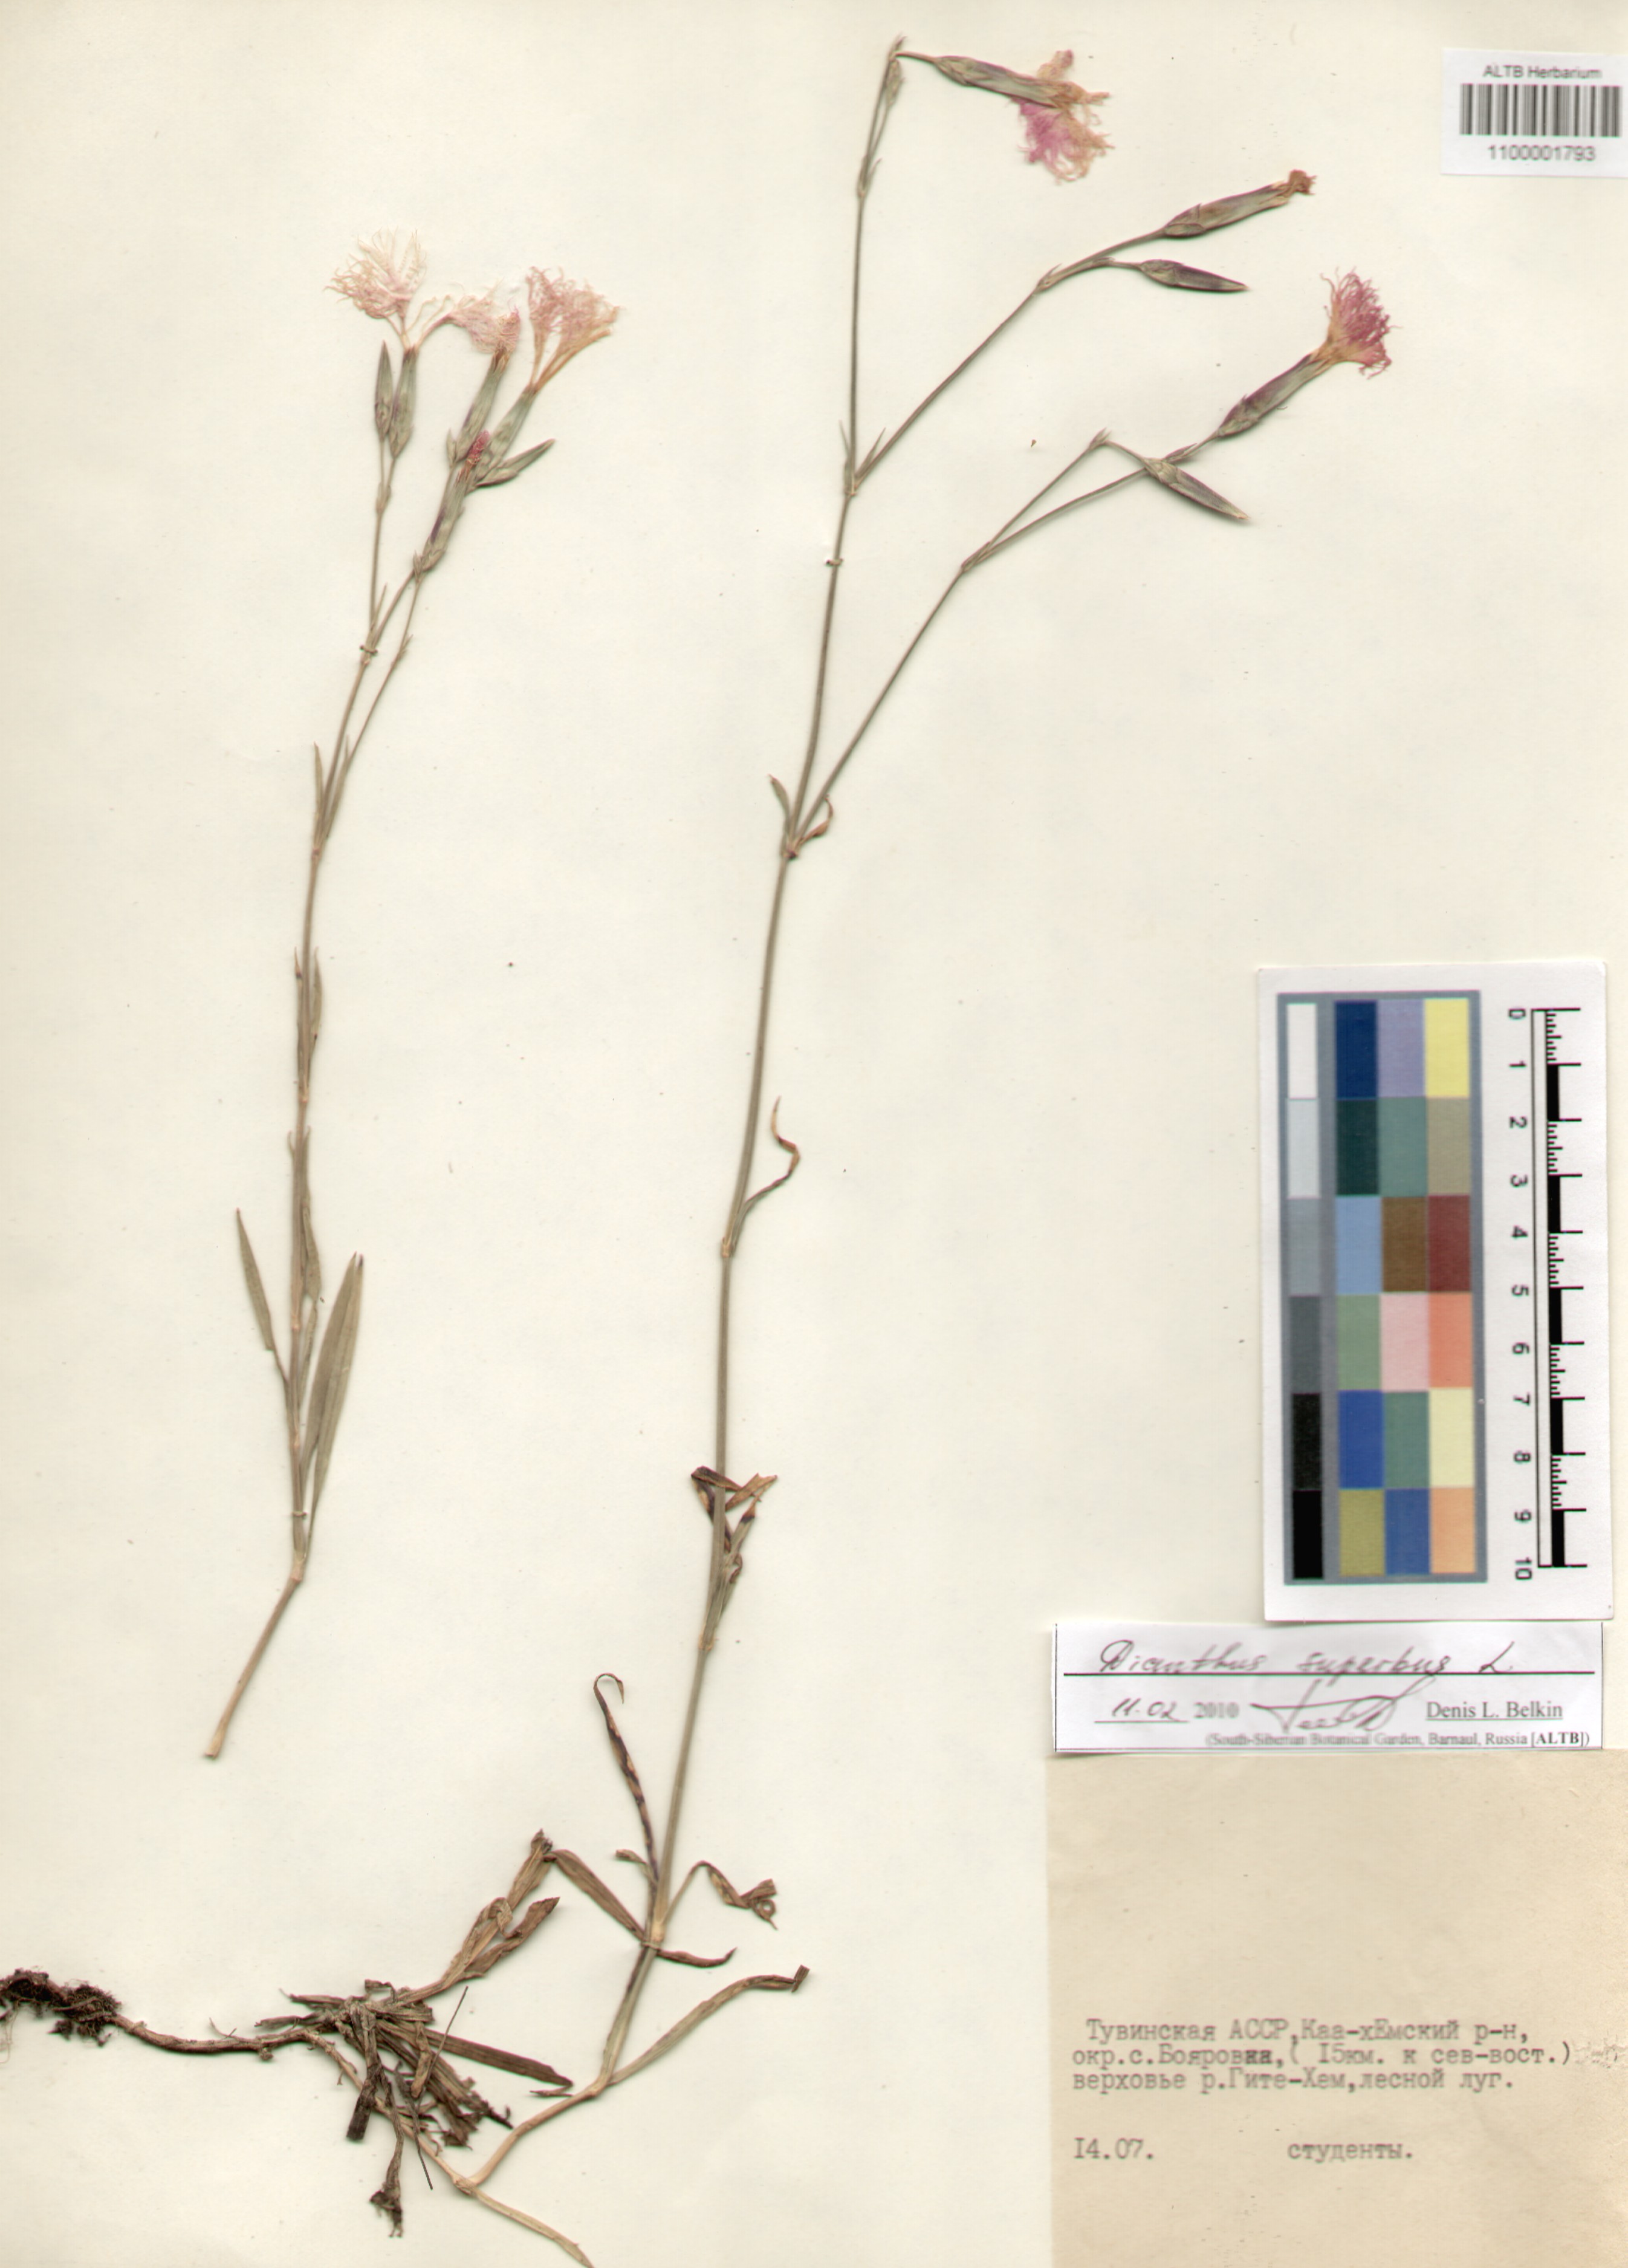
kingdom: Plantae
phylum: Tracheophyta
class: Magnoliopsida
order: Caryophyllales
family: Caryophyllaceae
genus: Dianthus
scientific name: Dianthus superbus
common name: Fringed pink
